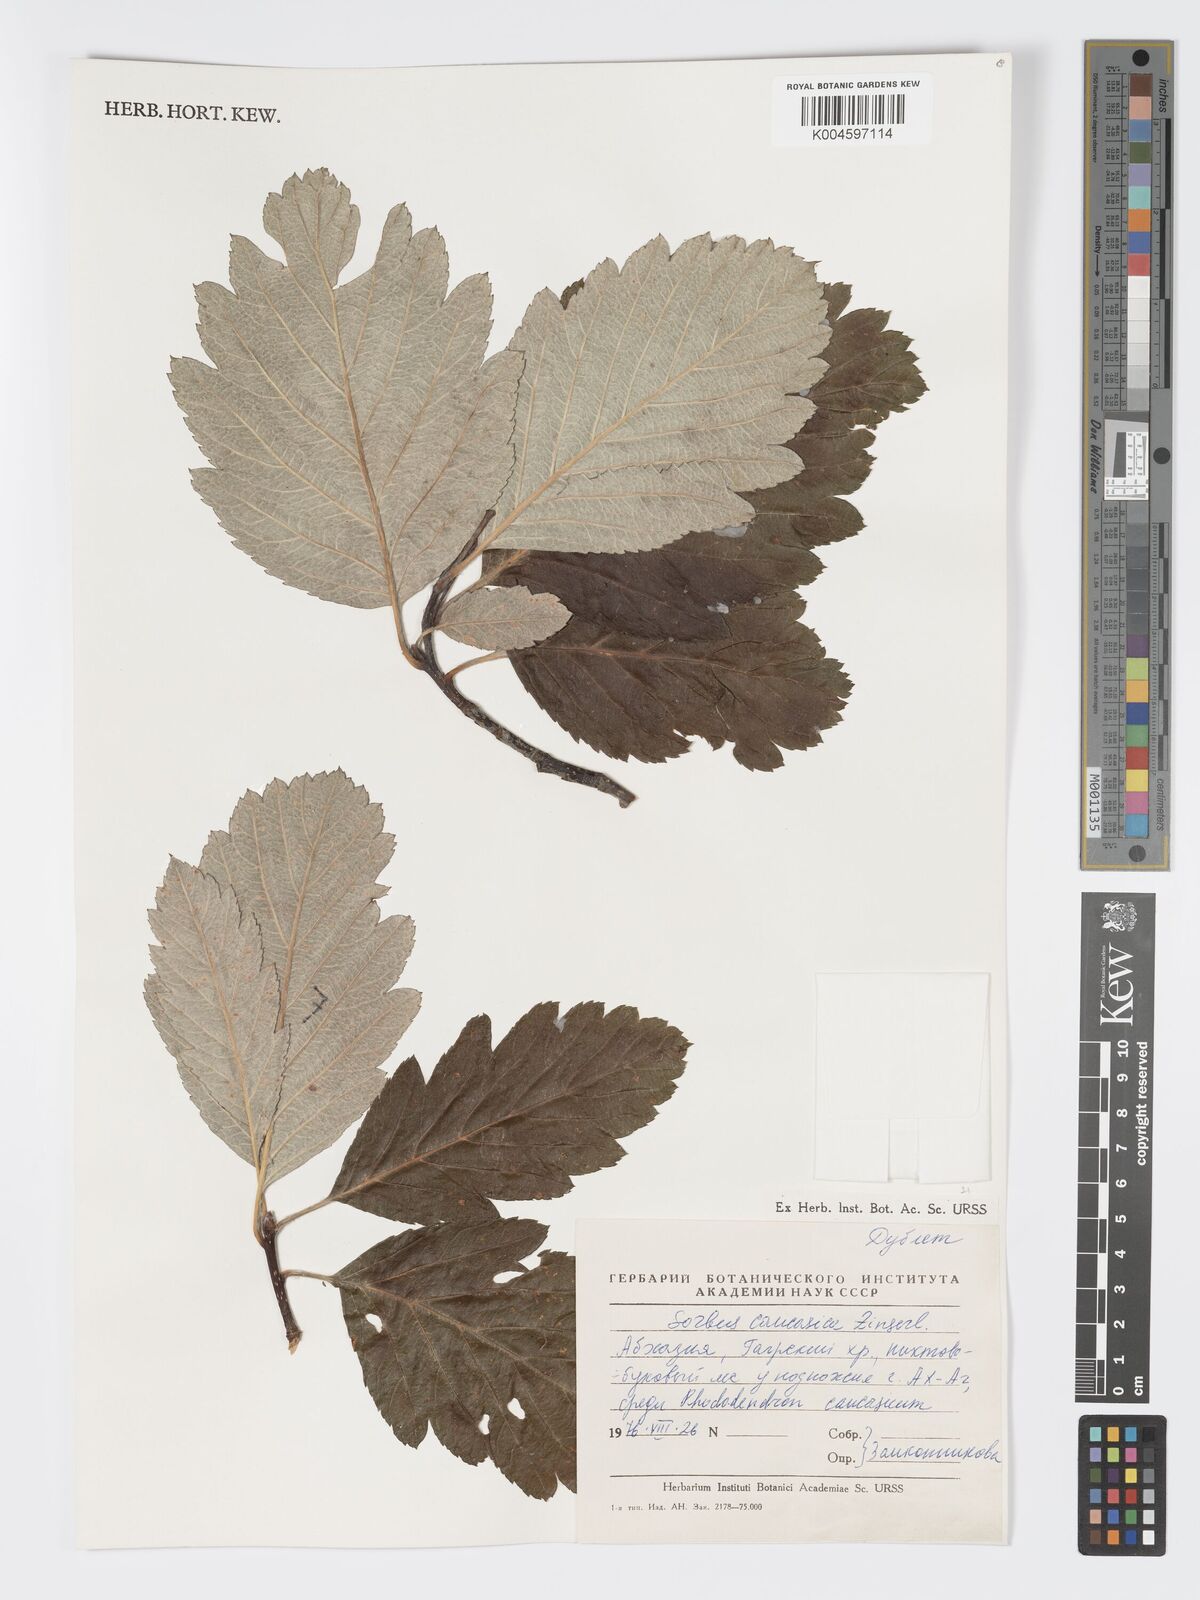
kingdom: Plantae
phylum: Tracheophyta
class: Magnoliopsida
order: Rosales
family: Rosaceae
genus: Hedlundia
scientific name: Hedlundia armeniaca
